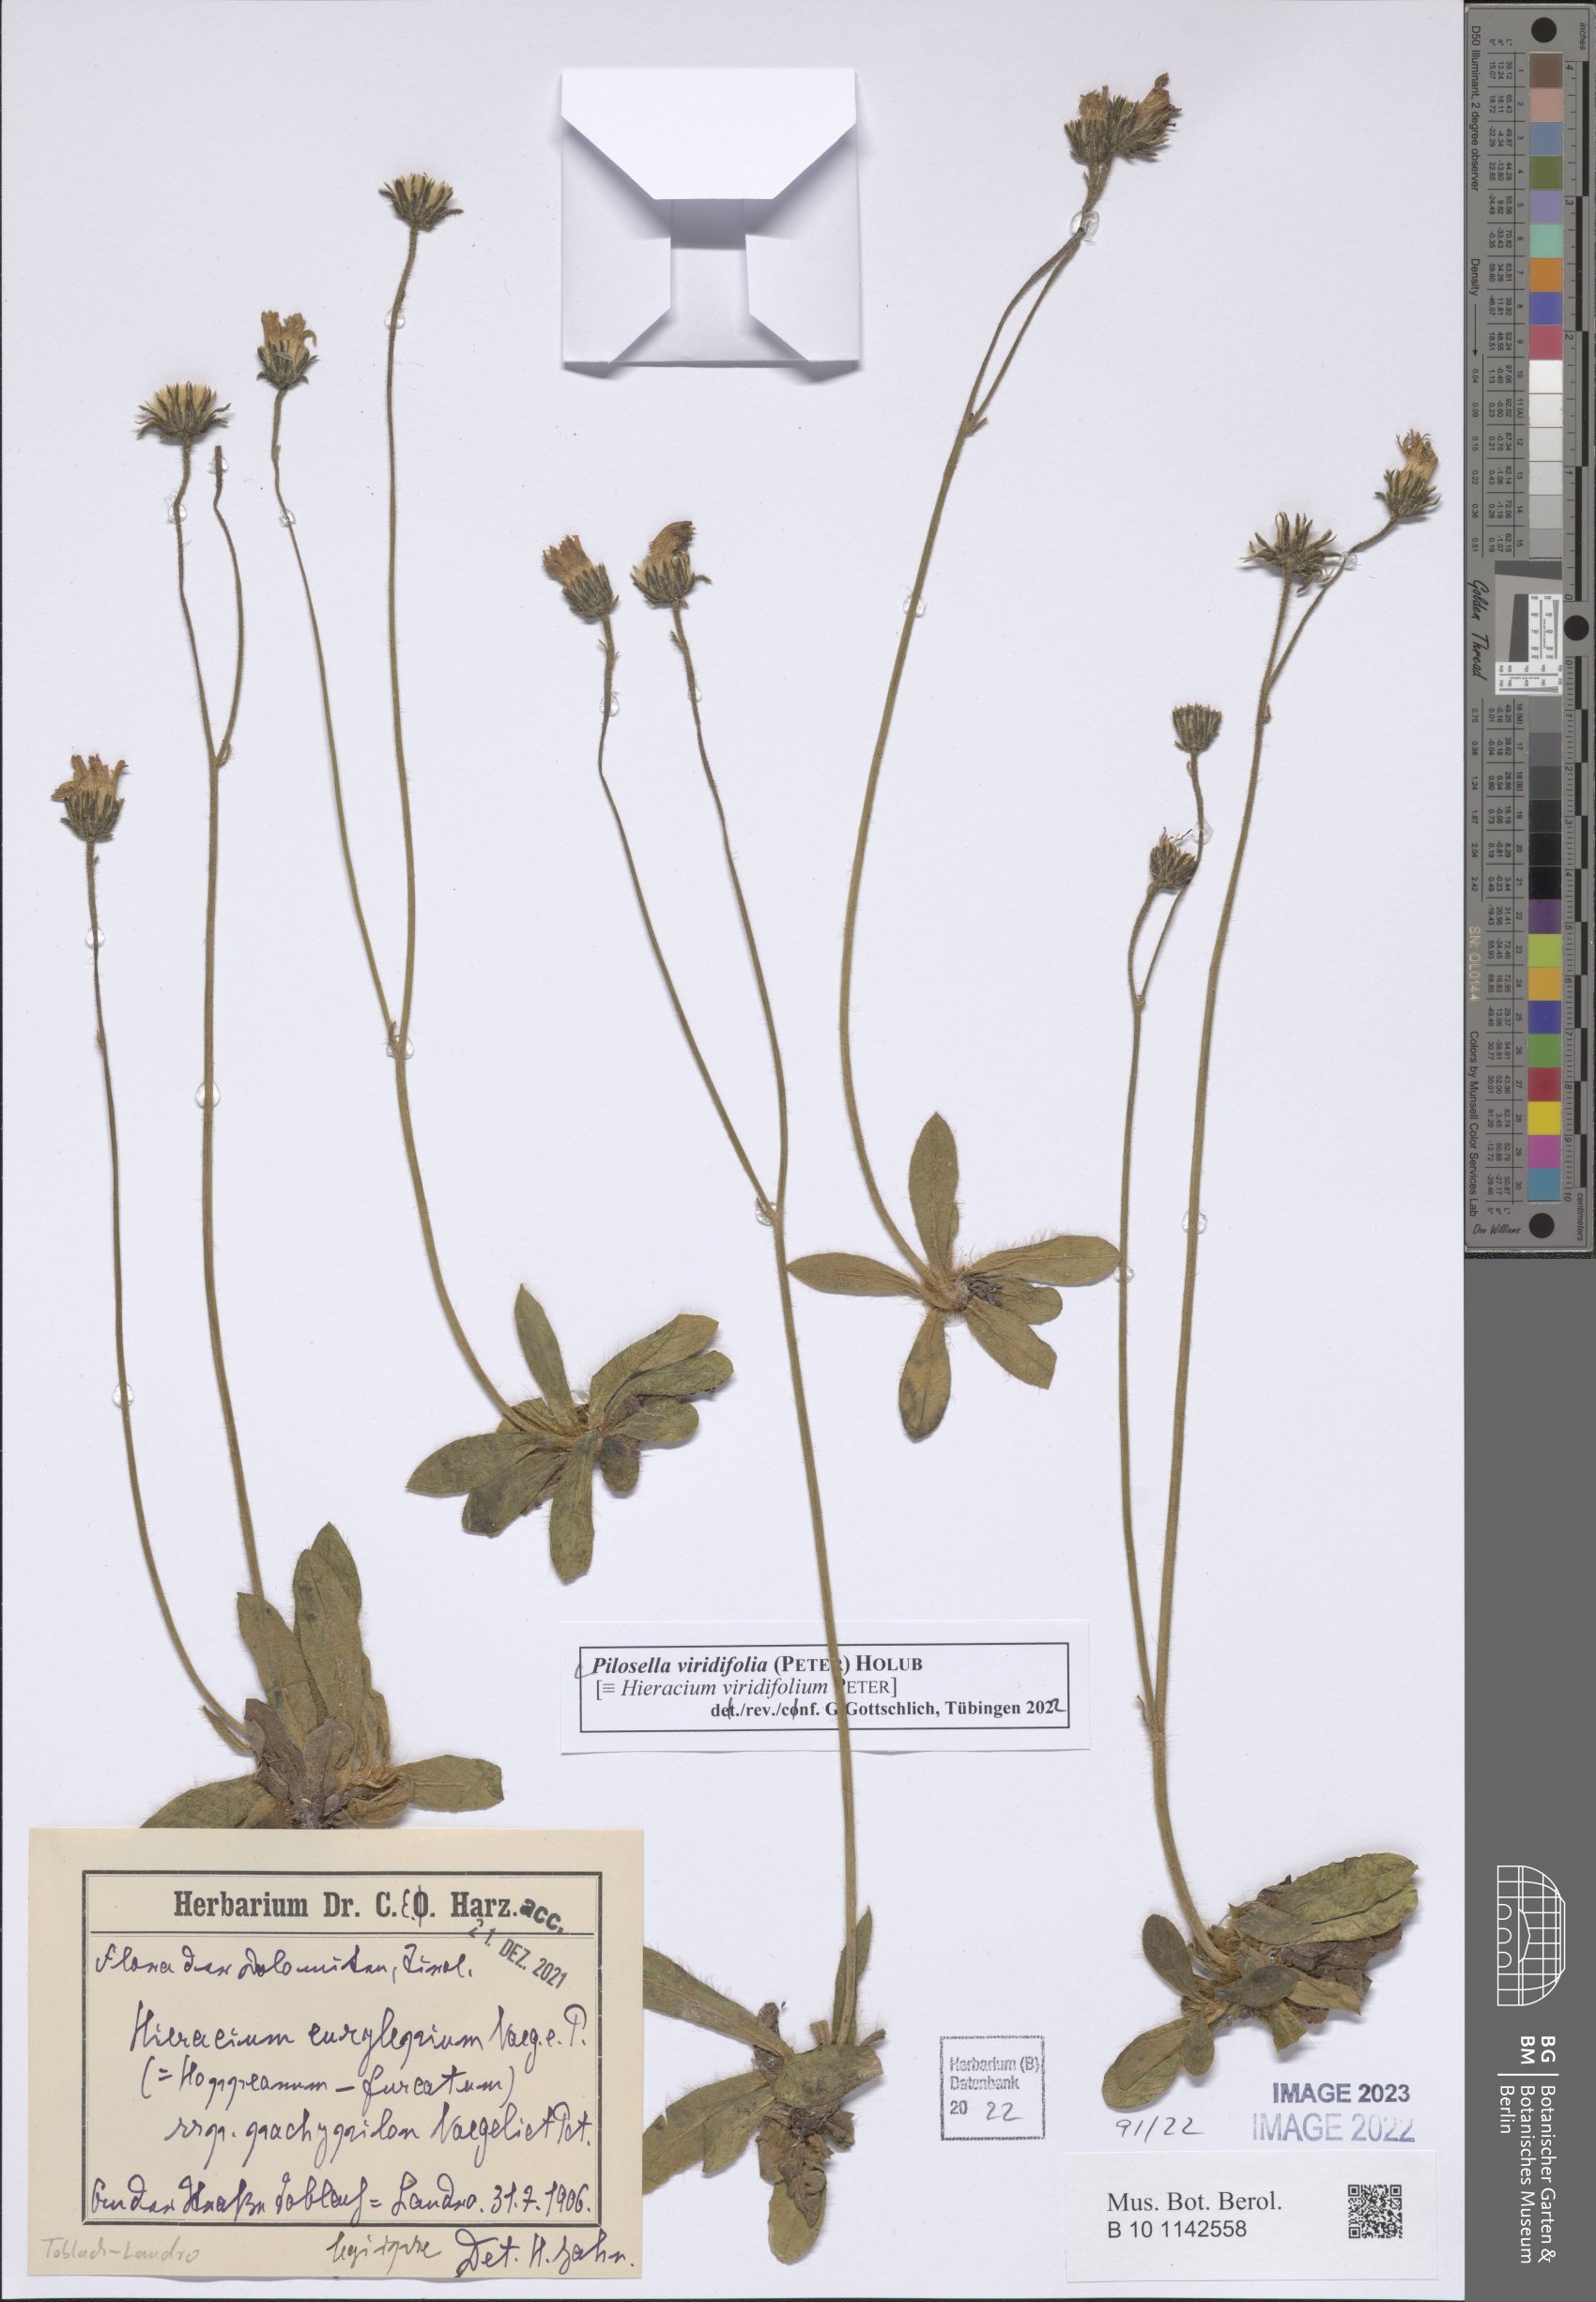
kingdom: Plantae
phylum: Tracheophyta
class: Magnoliopsida
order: Asterales
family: Asteraceae
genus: Pilosella
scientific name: Pilosella viridifolia
